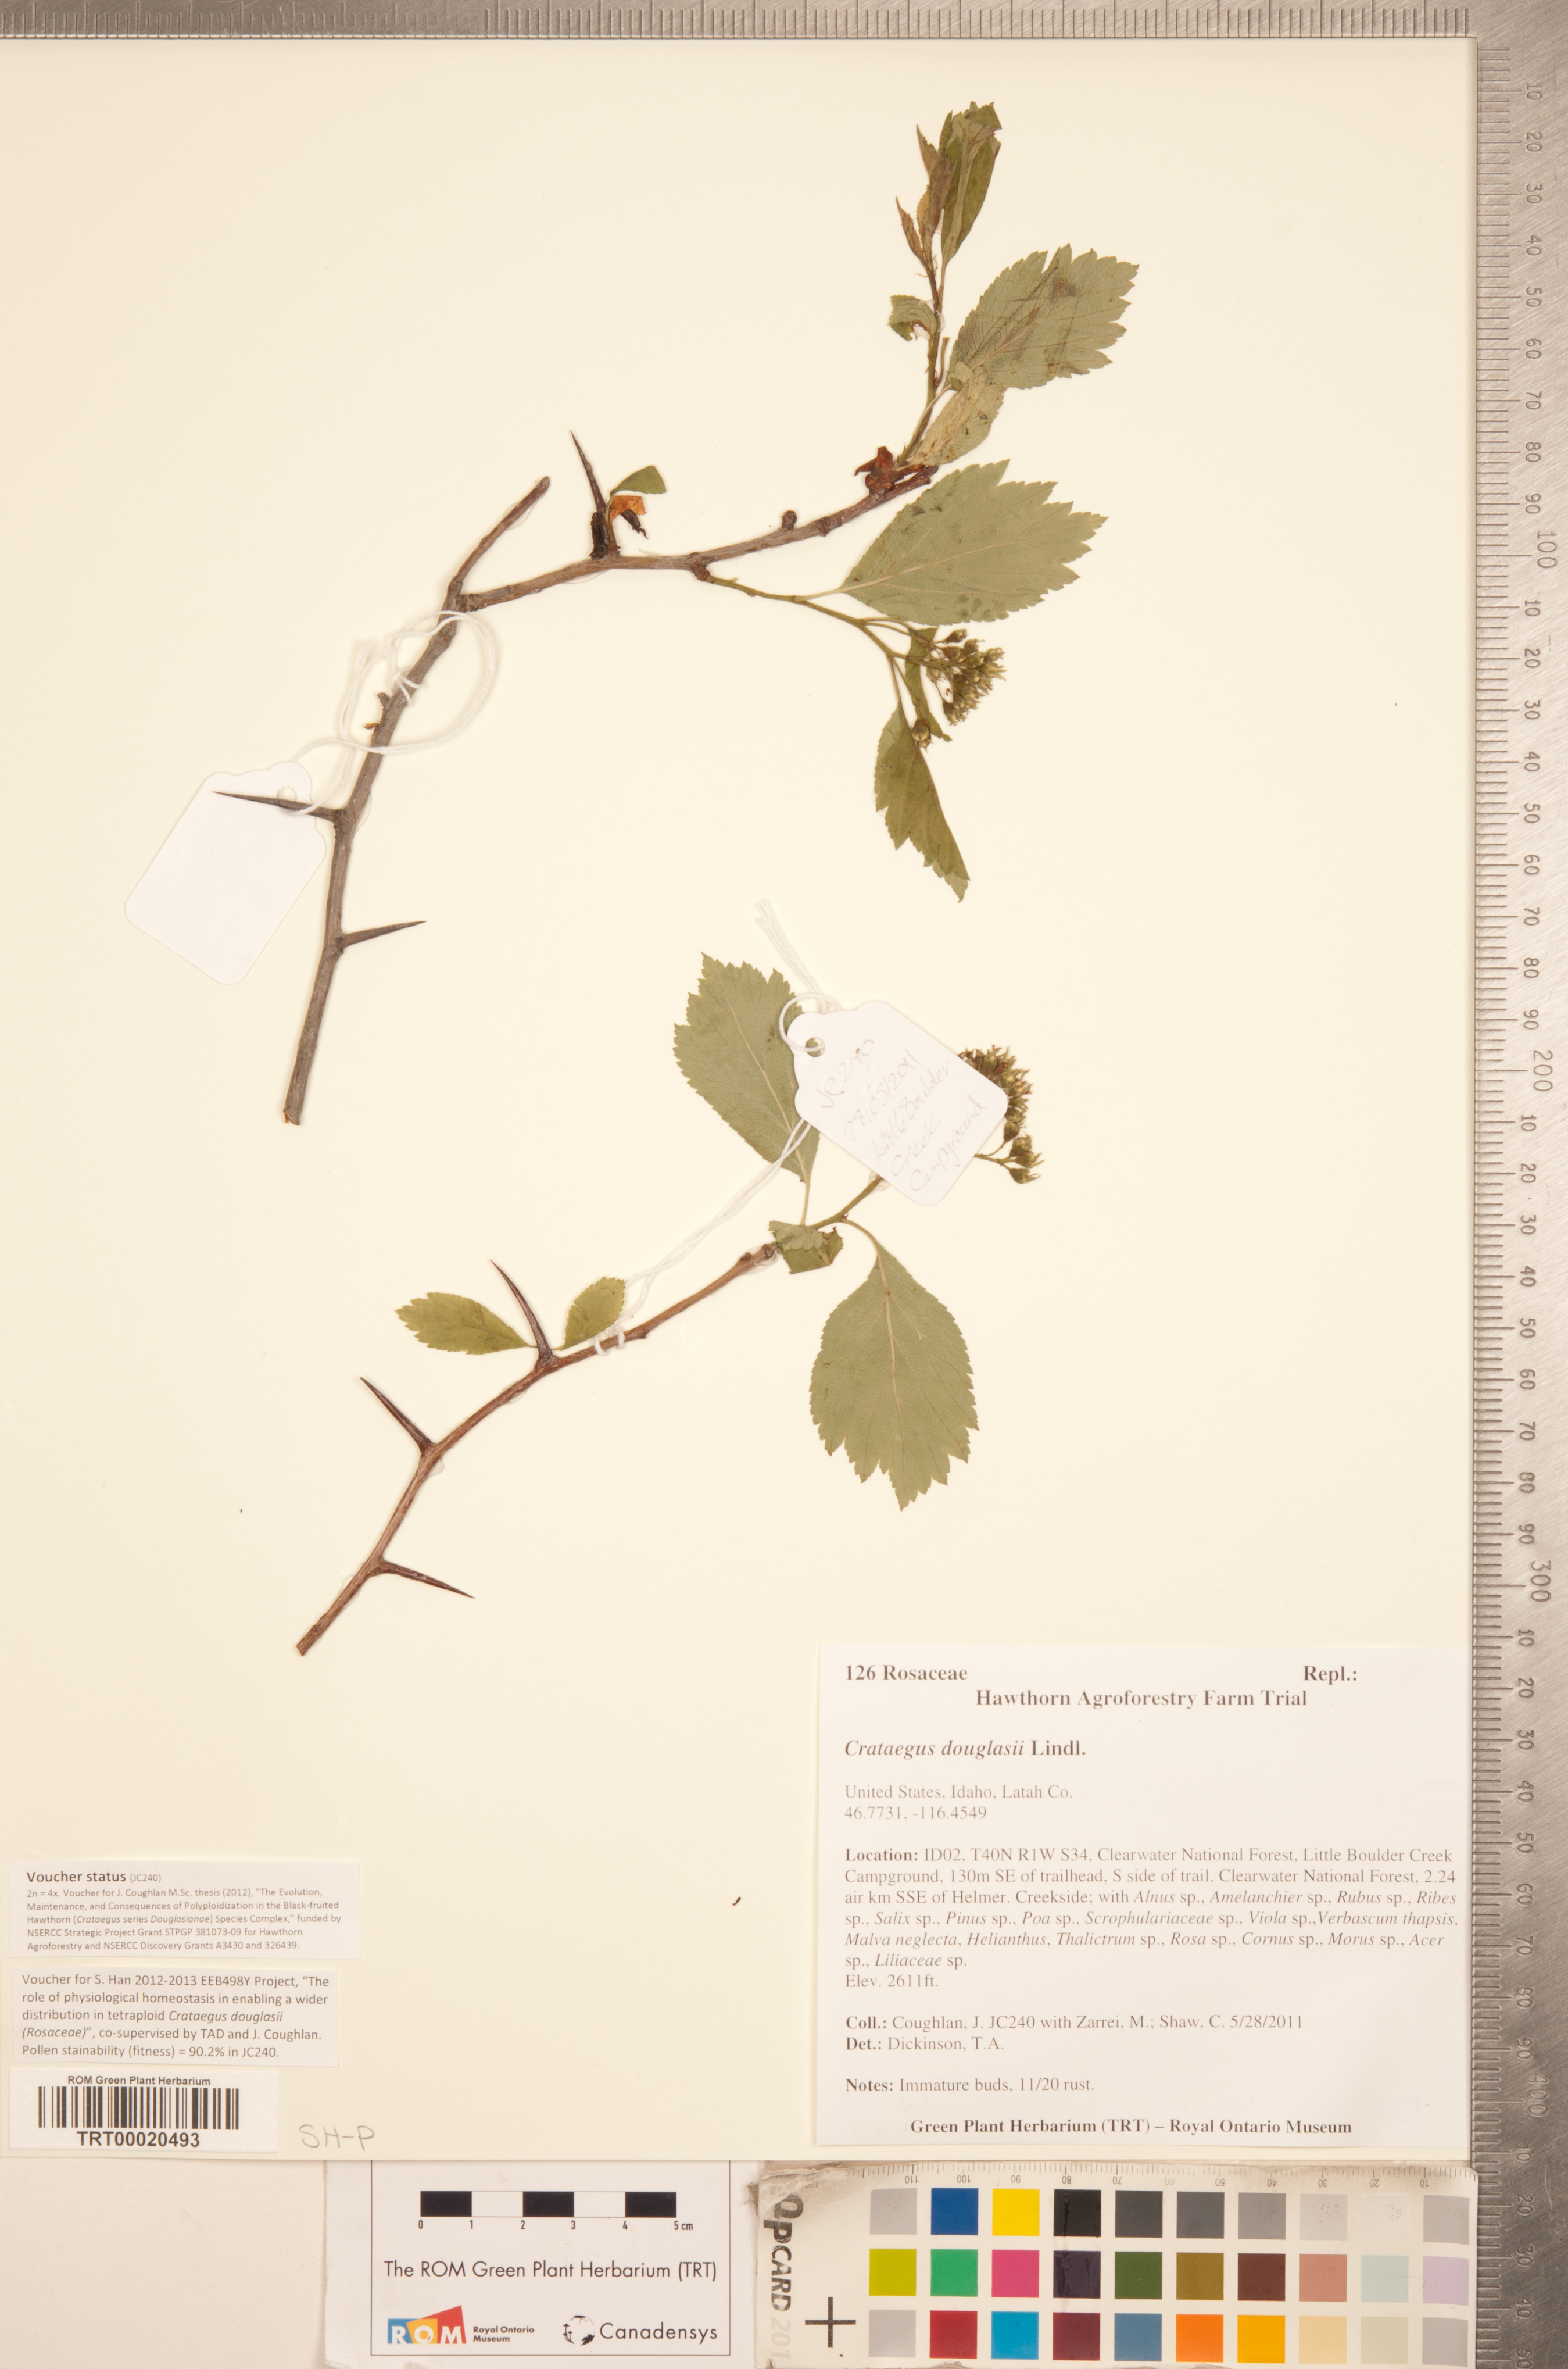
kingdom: Plantae
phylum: Tracheophyta
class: Magnoliopsida
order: Rosales
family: Rosaceae
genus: Crataegus
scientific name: Crataegus douglasii
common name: Black hawthorn
